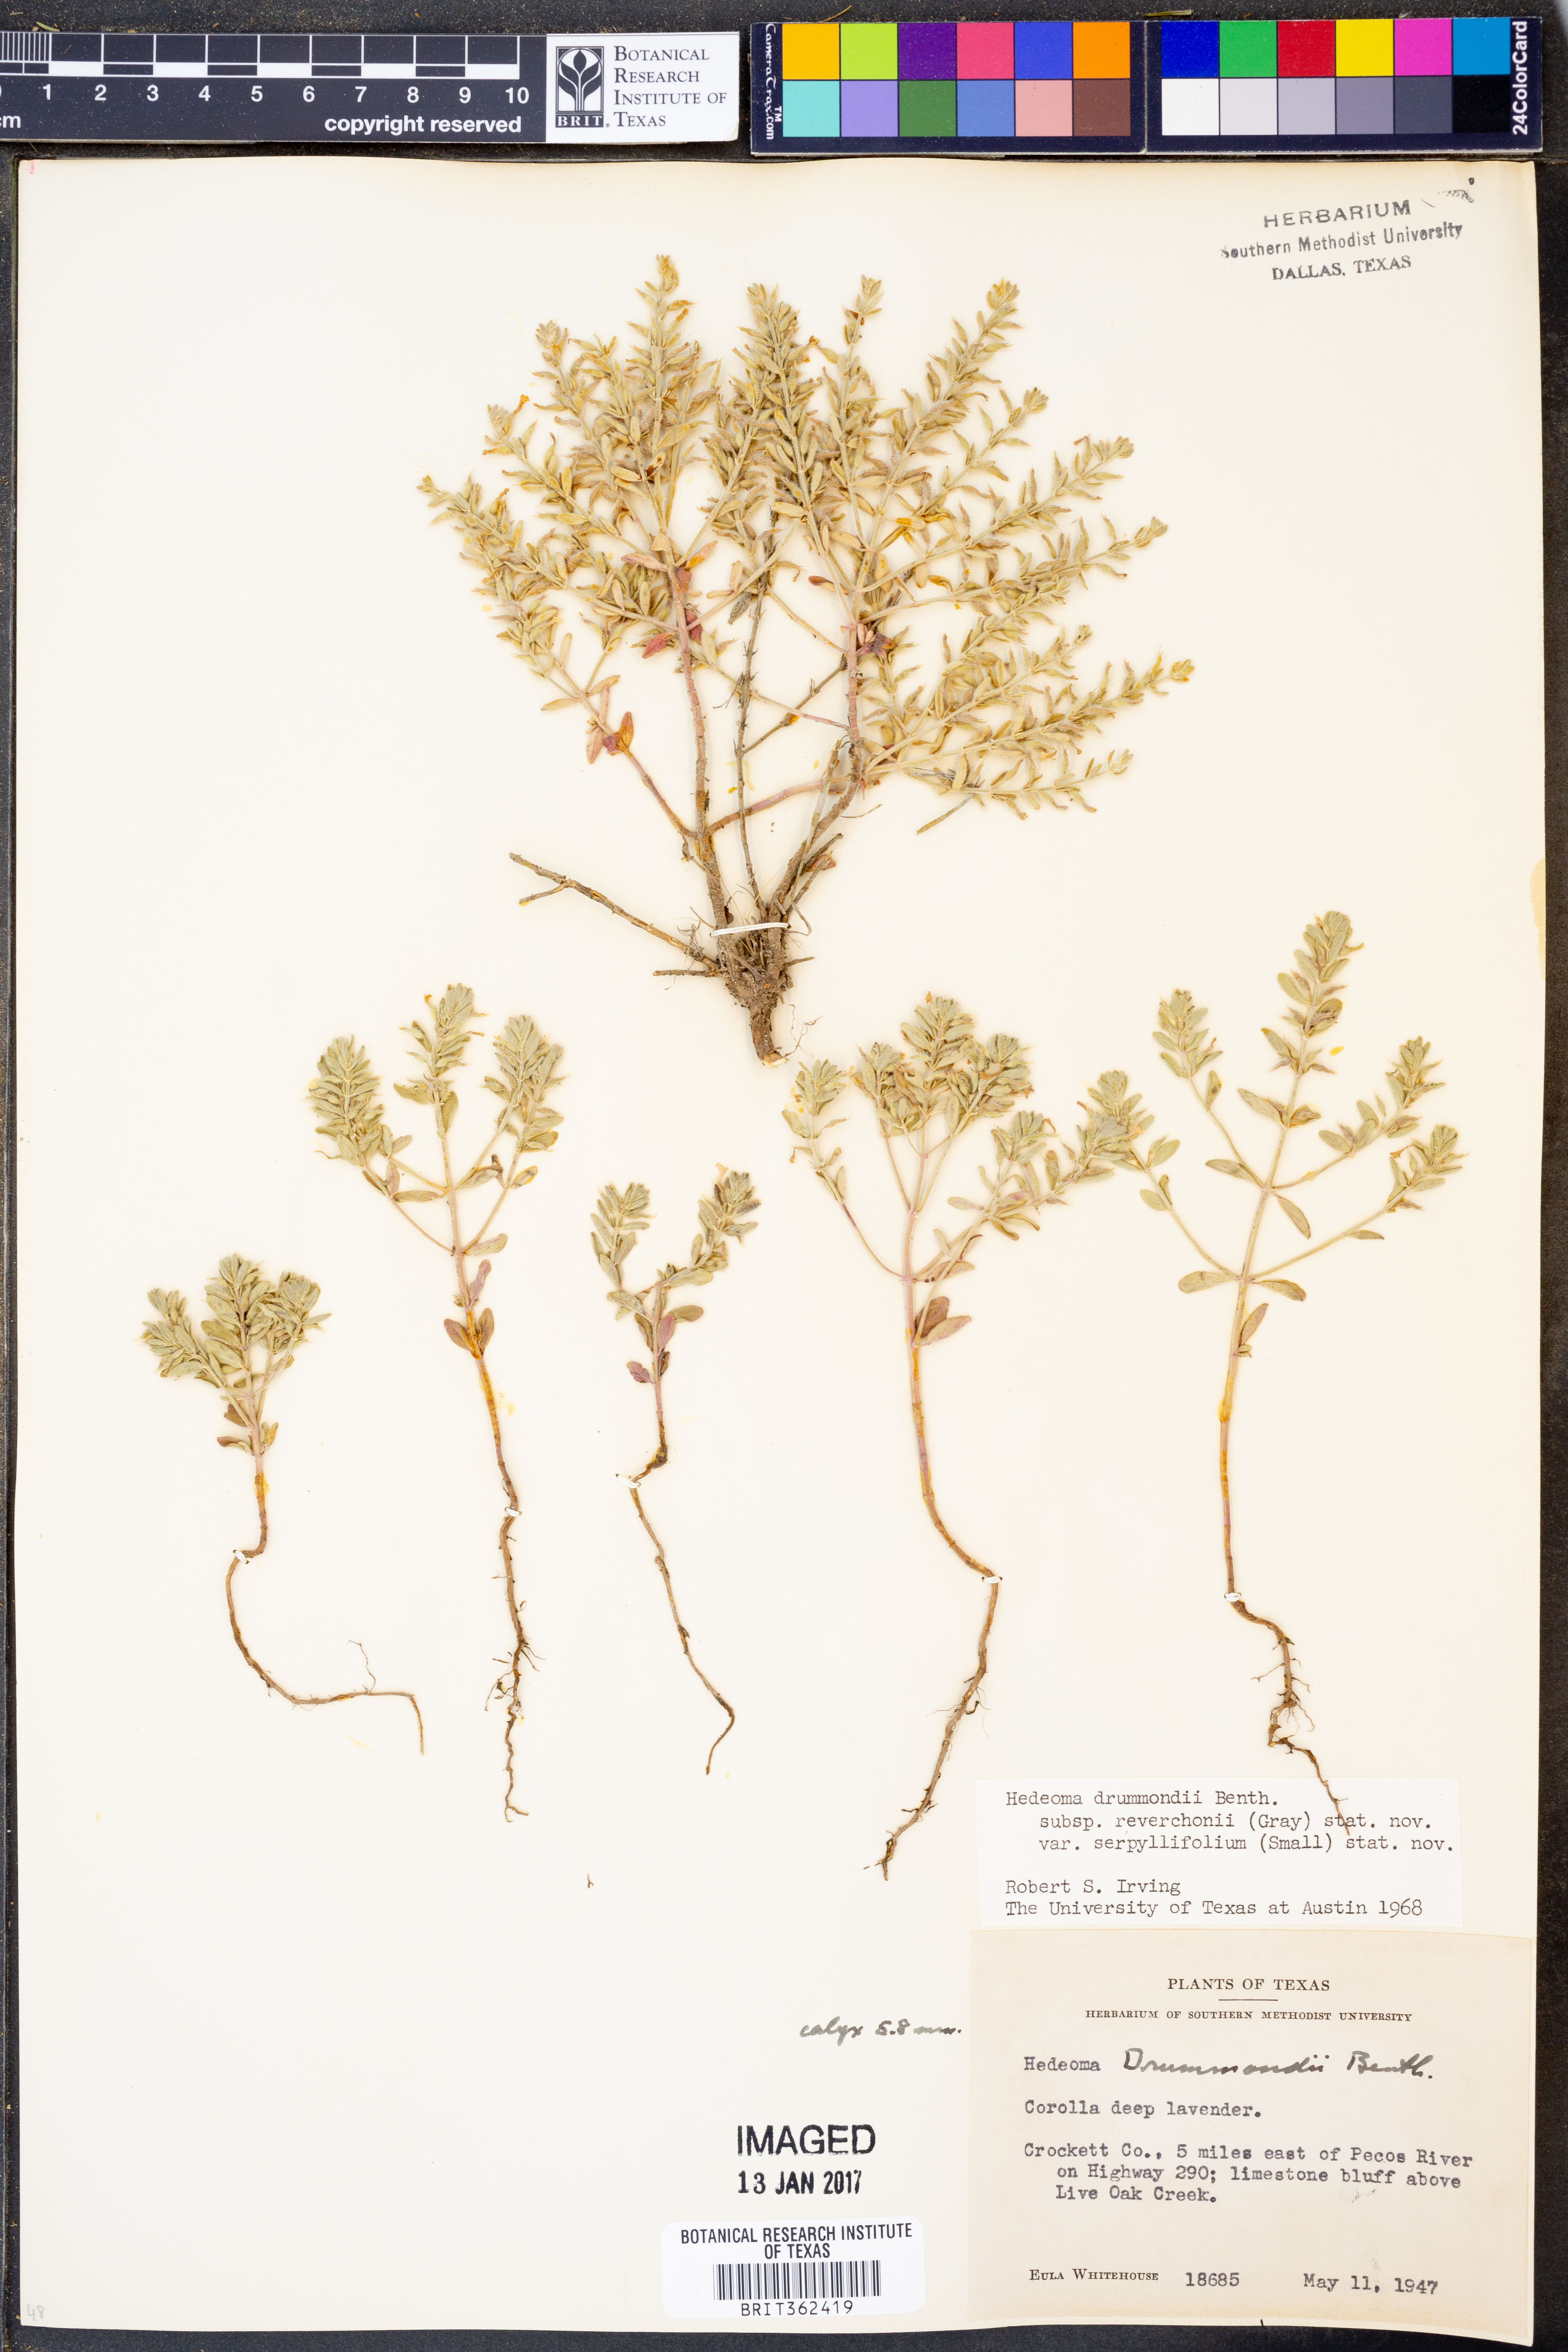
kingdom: Plantae
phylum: Tracheophyta
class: Magnoliopsida
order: Lamiales
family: Lamiaceae
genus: Hedeoma
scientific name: Hedeoma reverchonii
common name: Reverchon's false penny-royal
